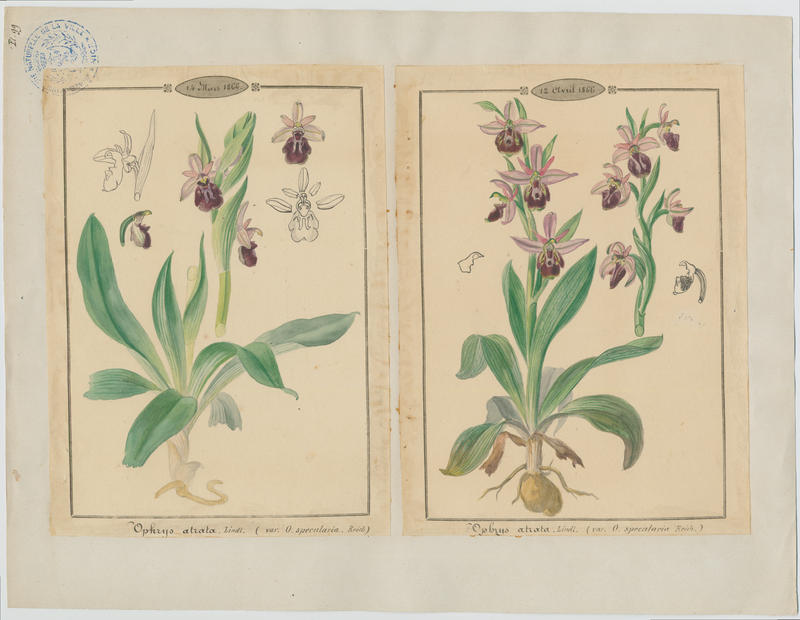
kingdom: Plantae
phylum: Tracheophyta
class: Liliopsida
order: Asparagales
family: Orchidaceae
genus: Ophrys
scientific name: Ophrys sphegodes
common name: Early spider-orchid
